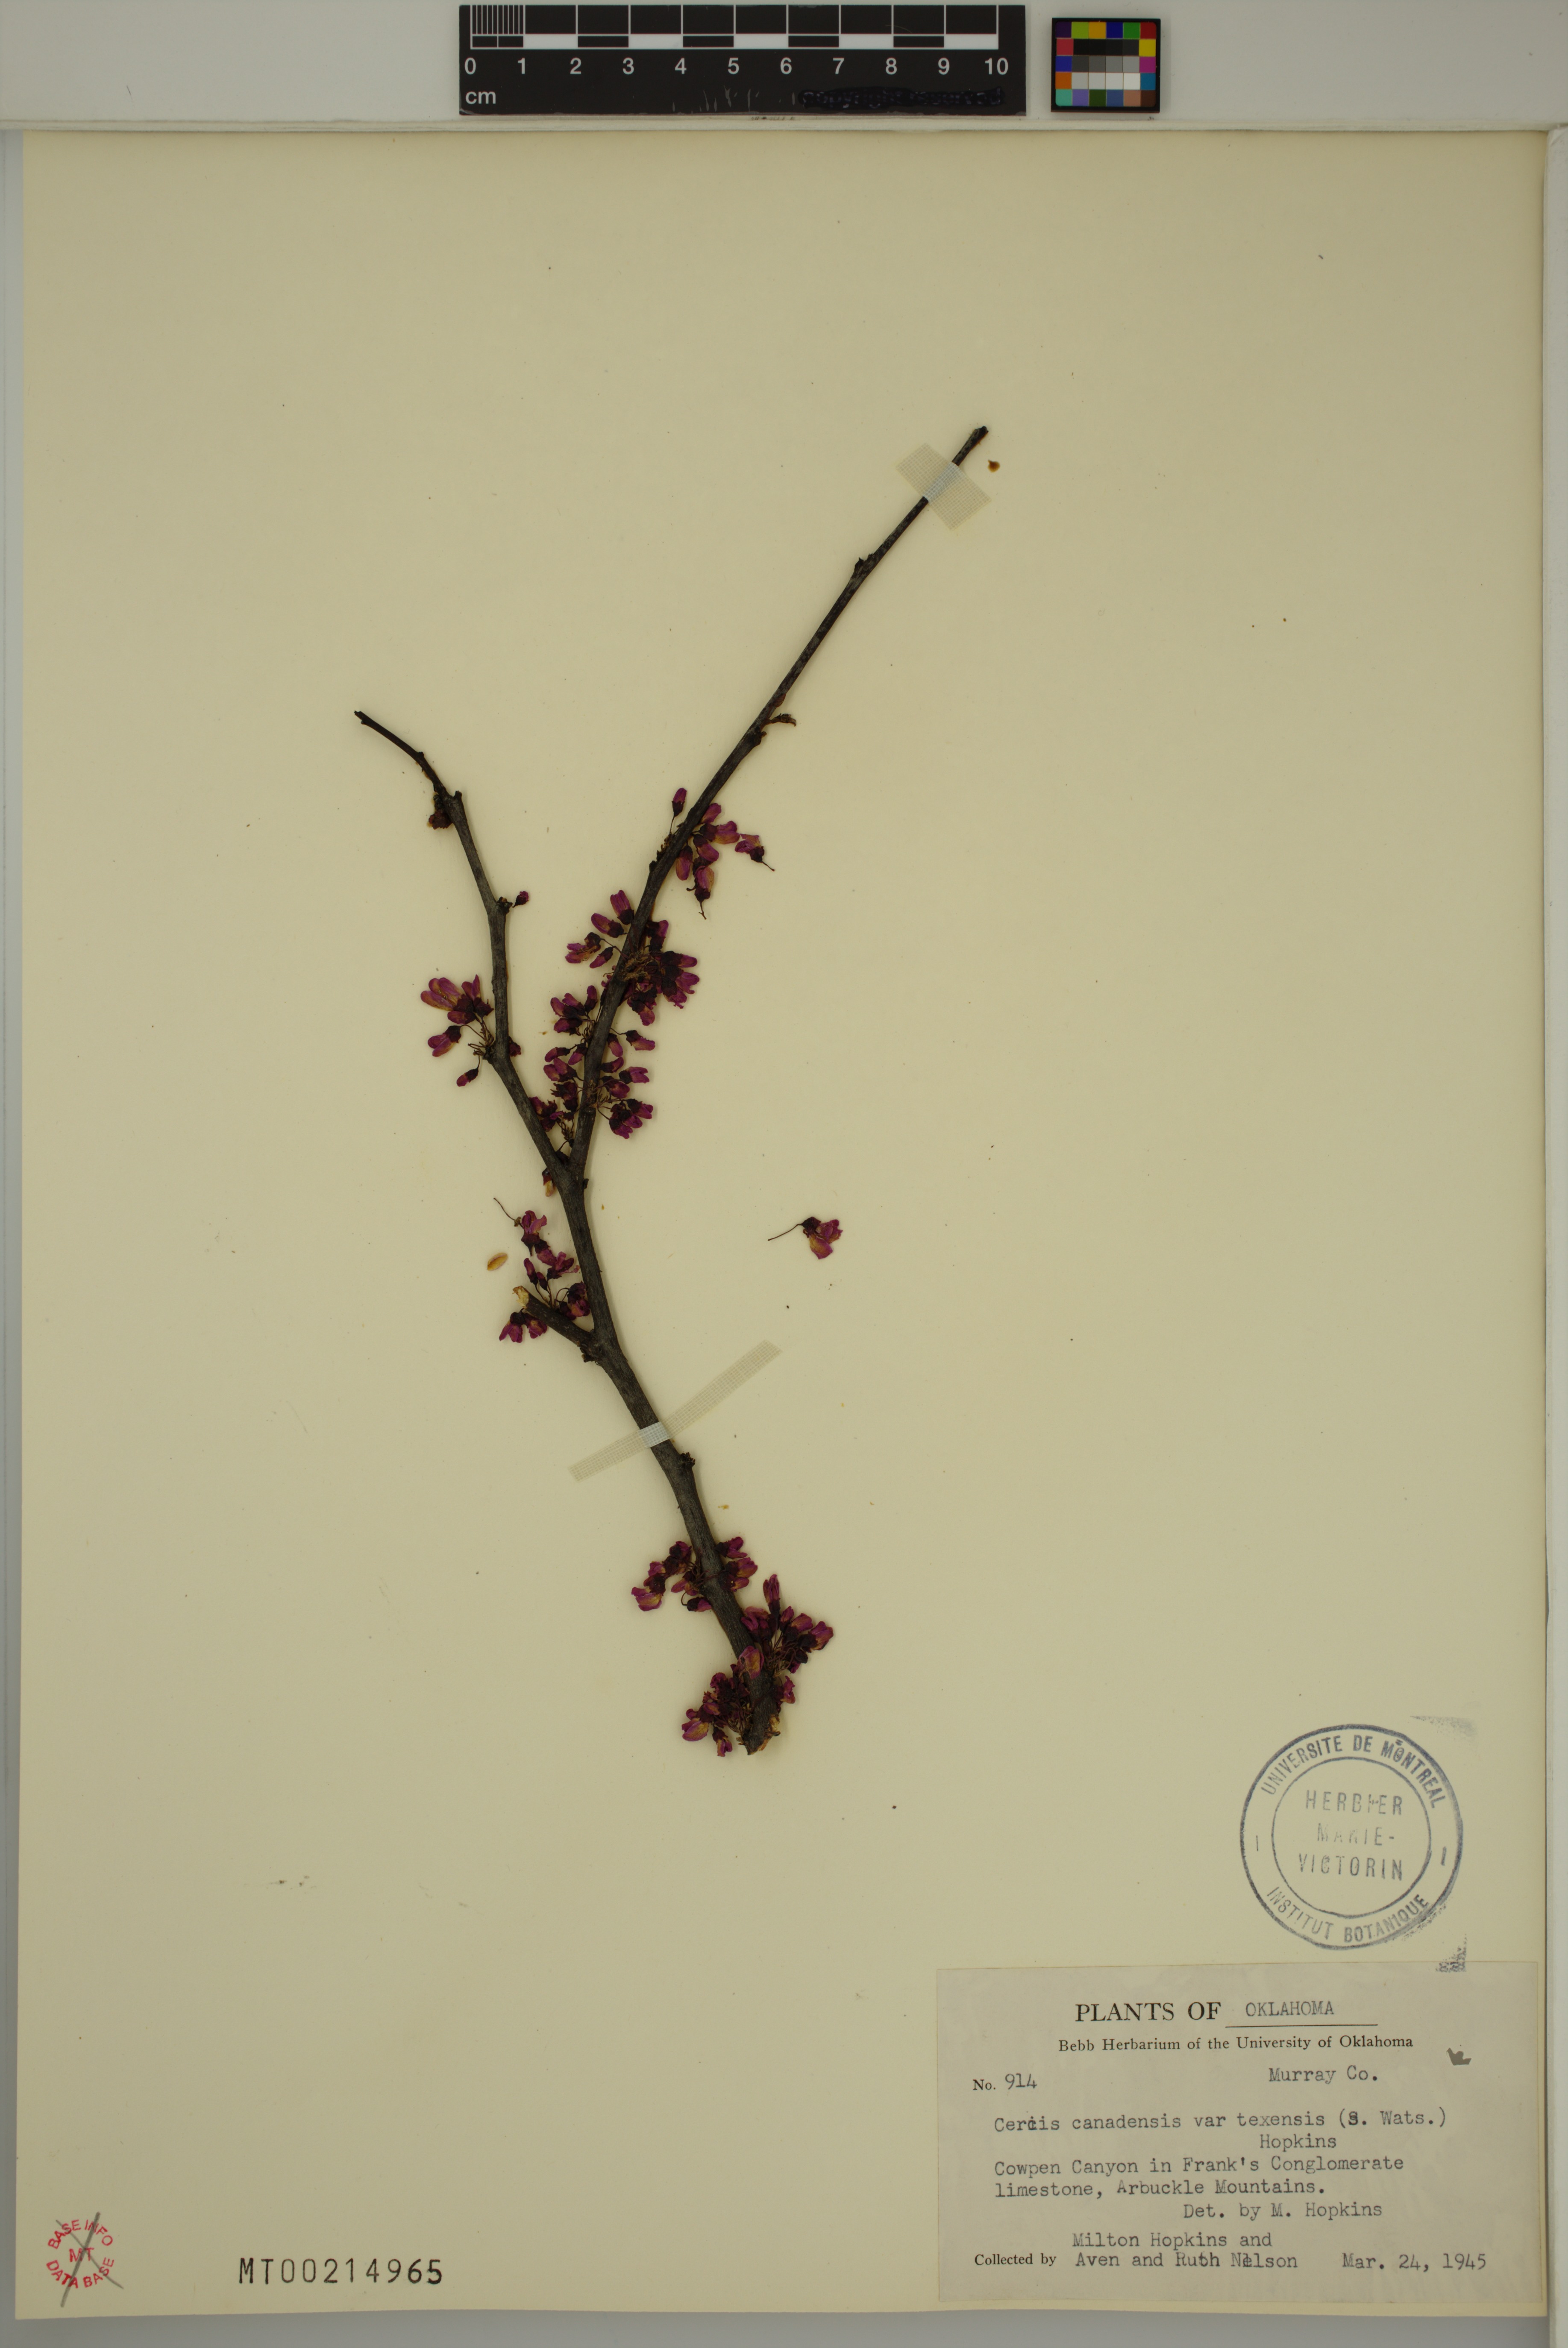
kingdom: Plantae
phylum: Tracheophyta
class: Magnoliopsida
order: Fabales
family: Fabaceae
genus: Cercis
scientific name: Cercis canadensis
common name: Eastern redbud
